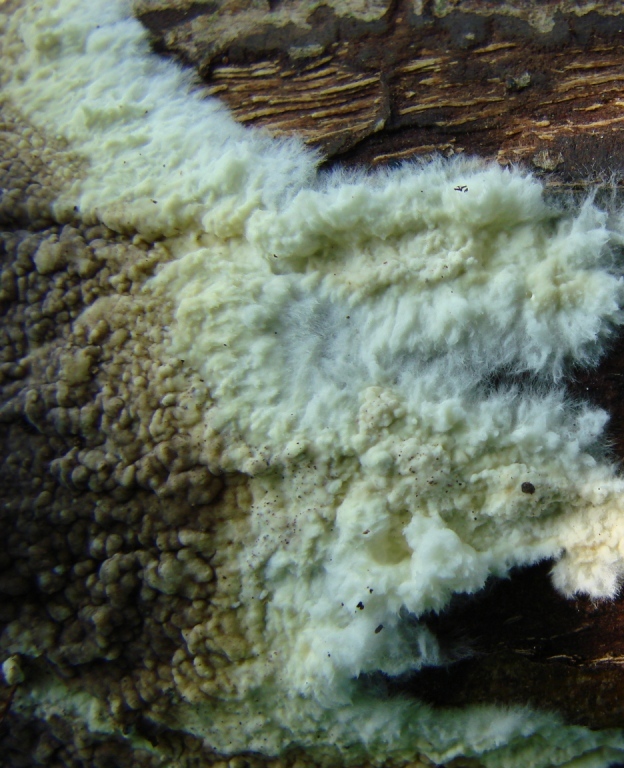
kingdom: Fungi
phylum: Basidiomycota
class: Agaricomycetes
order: Boletales
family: Coniophoraceae
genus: Coniophora
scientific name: Coniophora puteana
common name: gul tømmersvamp
